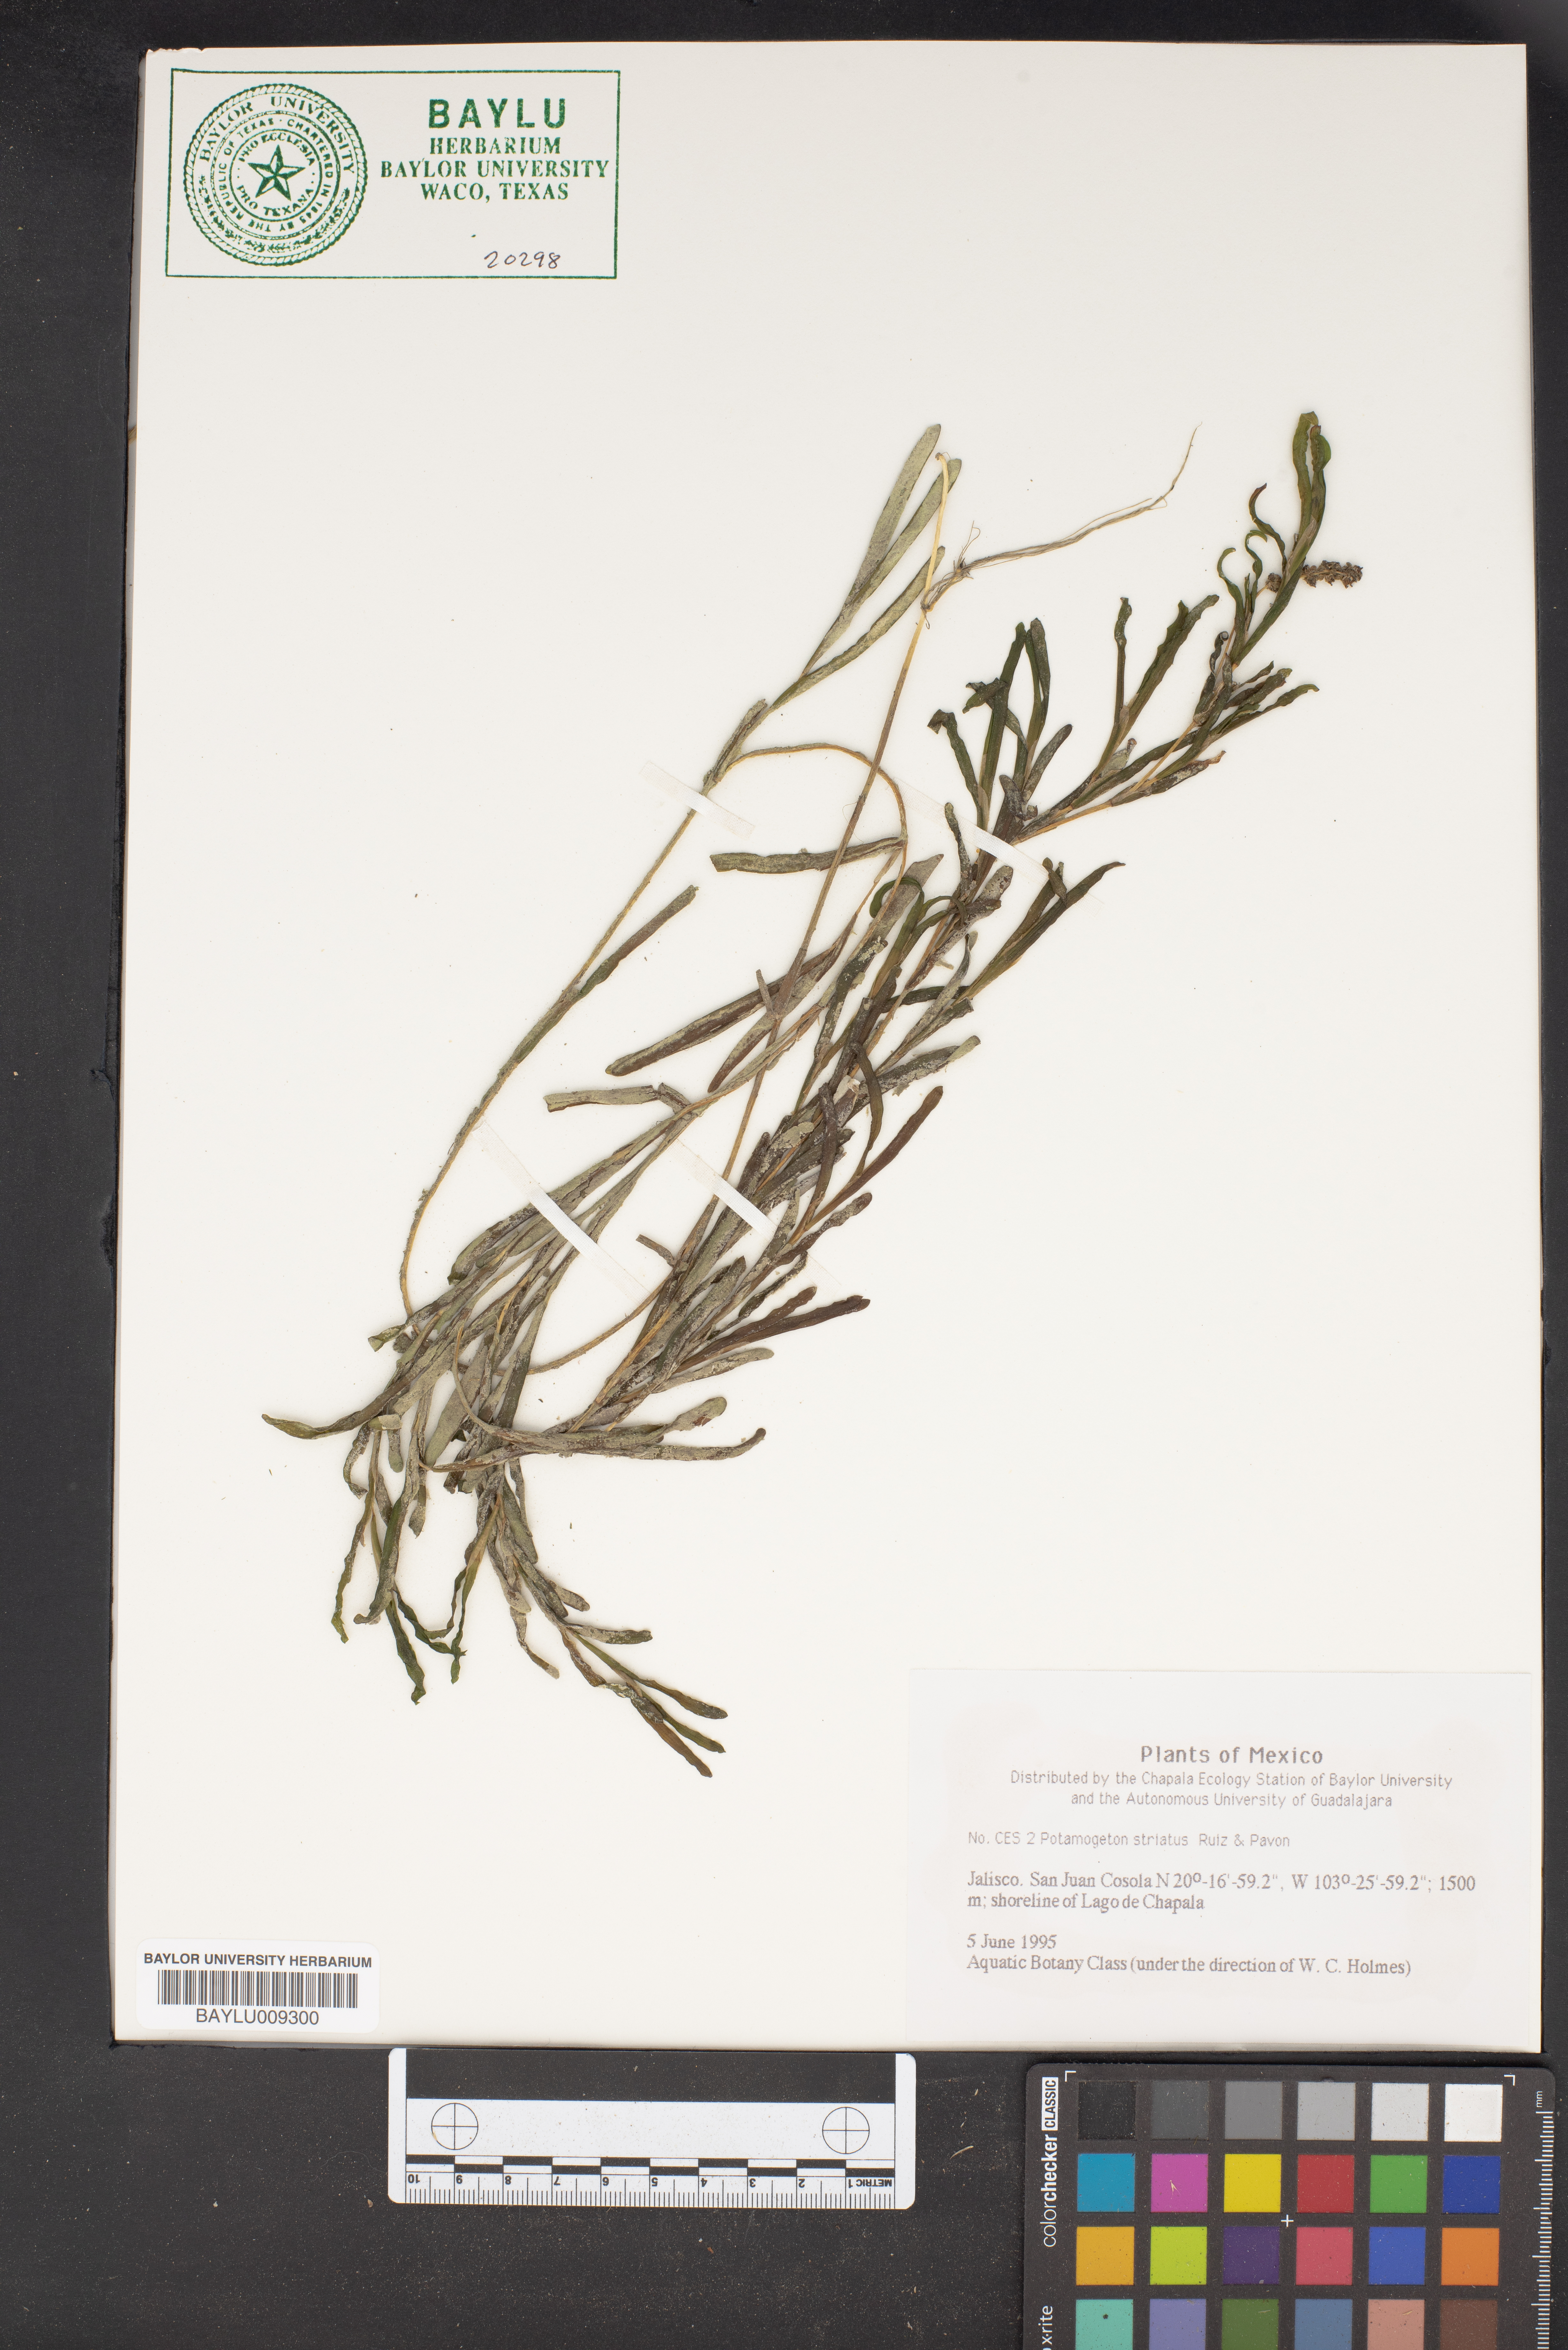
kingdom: Plantae
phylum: Tracheophyta
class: Liliopsida
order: Alismatales
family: Potamogetonaceae
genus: Stuckenia
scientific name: Stuckenia striata
